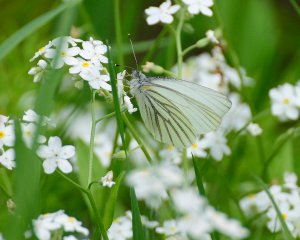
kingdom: Animalia
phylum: Arthropoda
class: Insecta
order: Lepidoptera
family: Pieridae
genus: Pieris
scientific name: Pieris oleracea
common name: Mustard White
